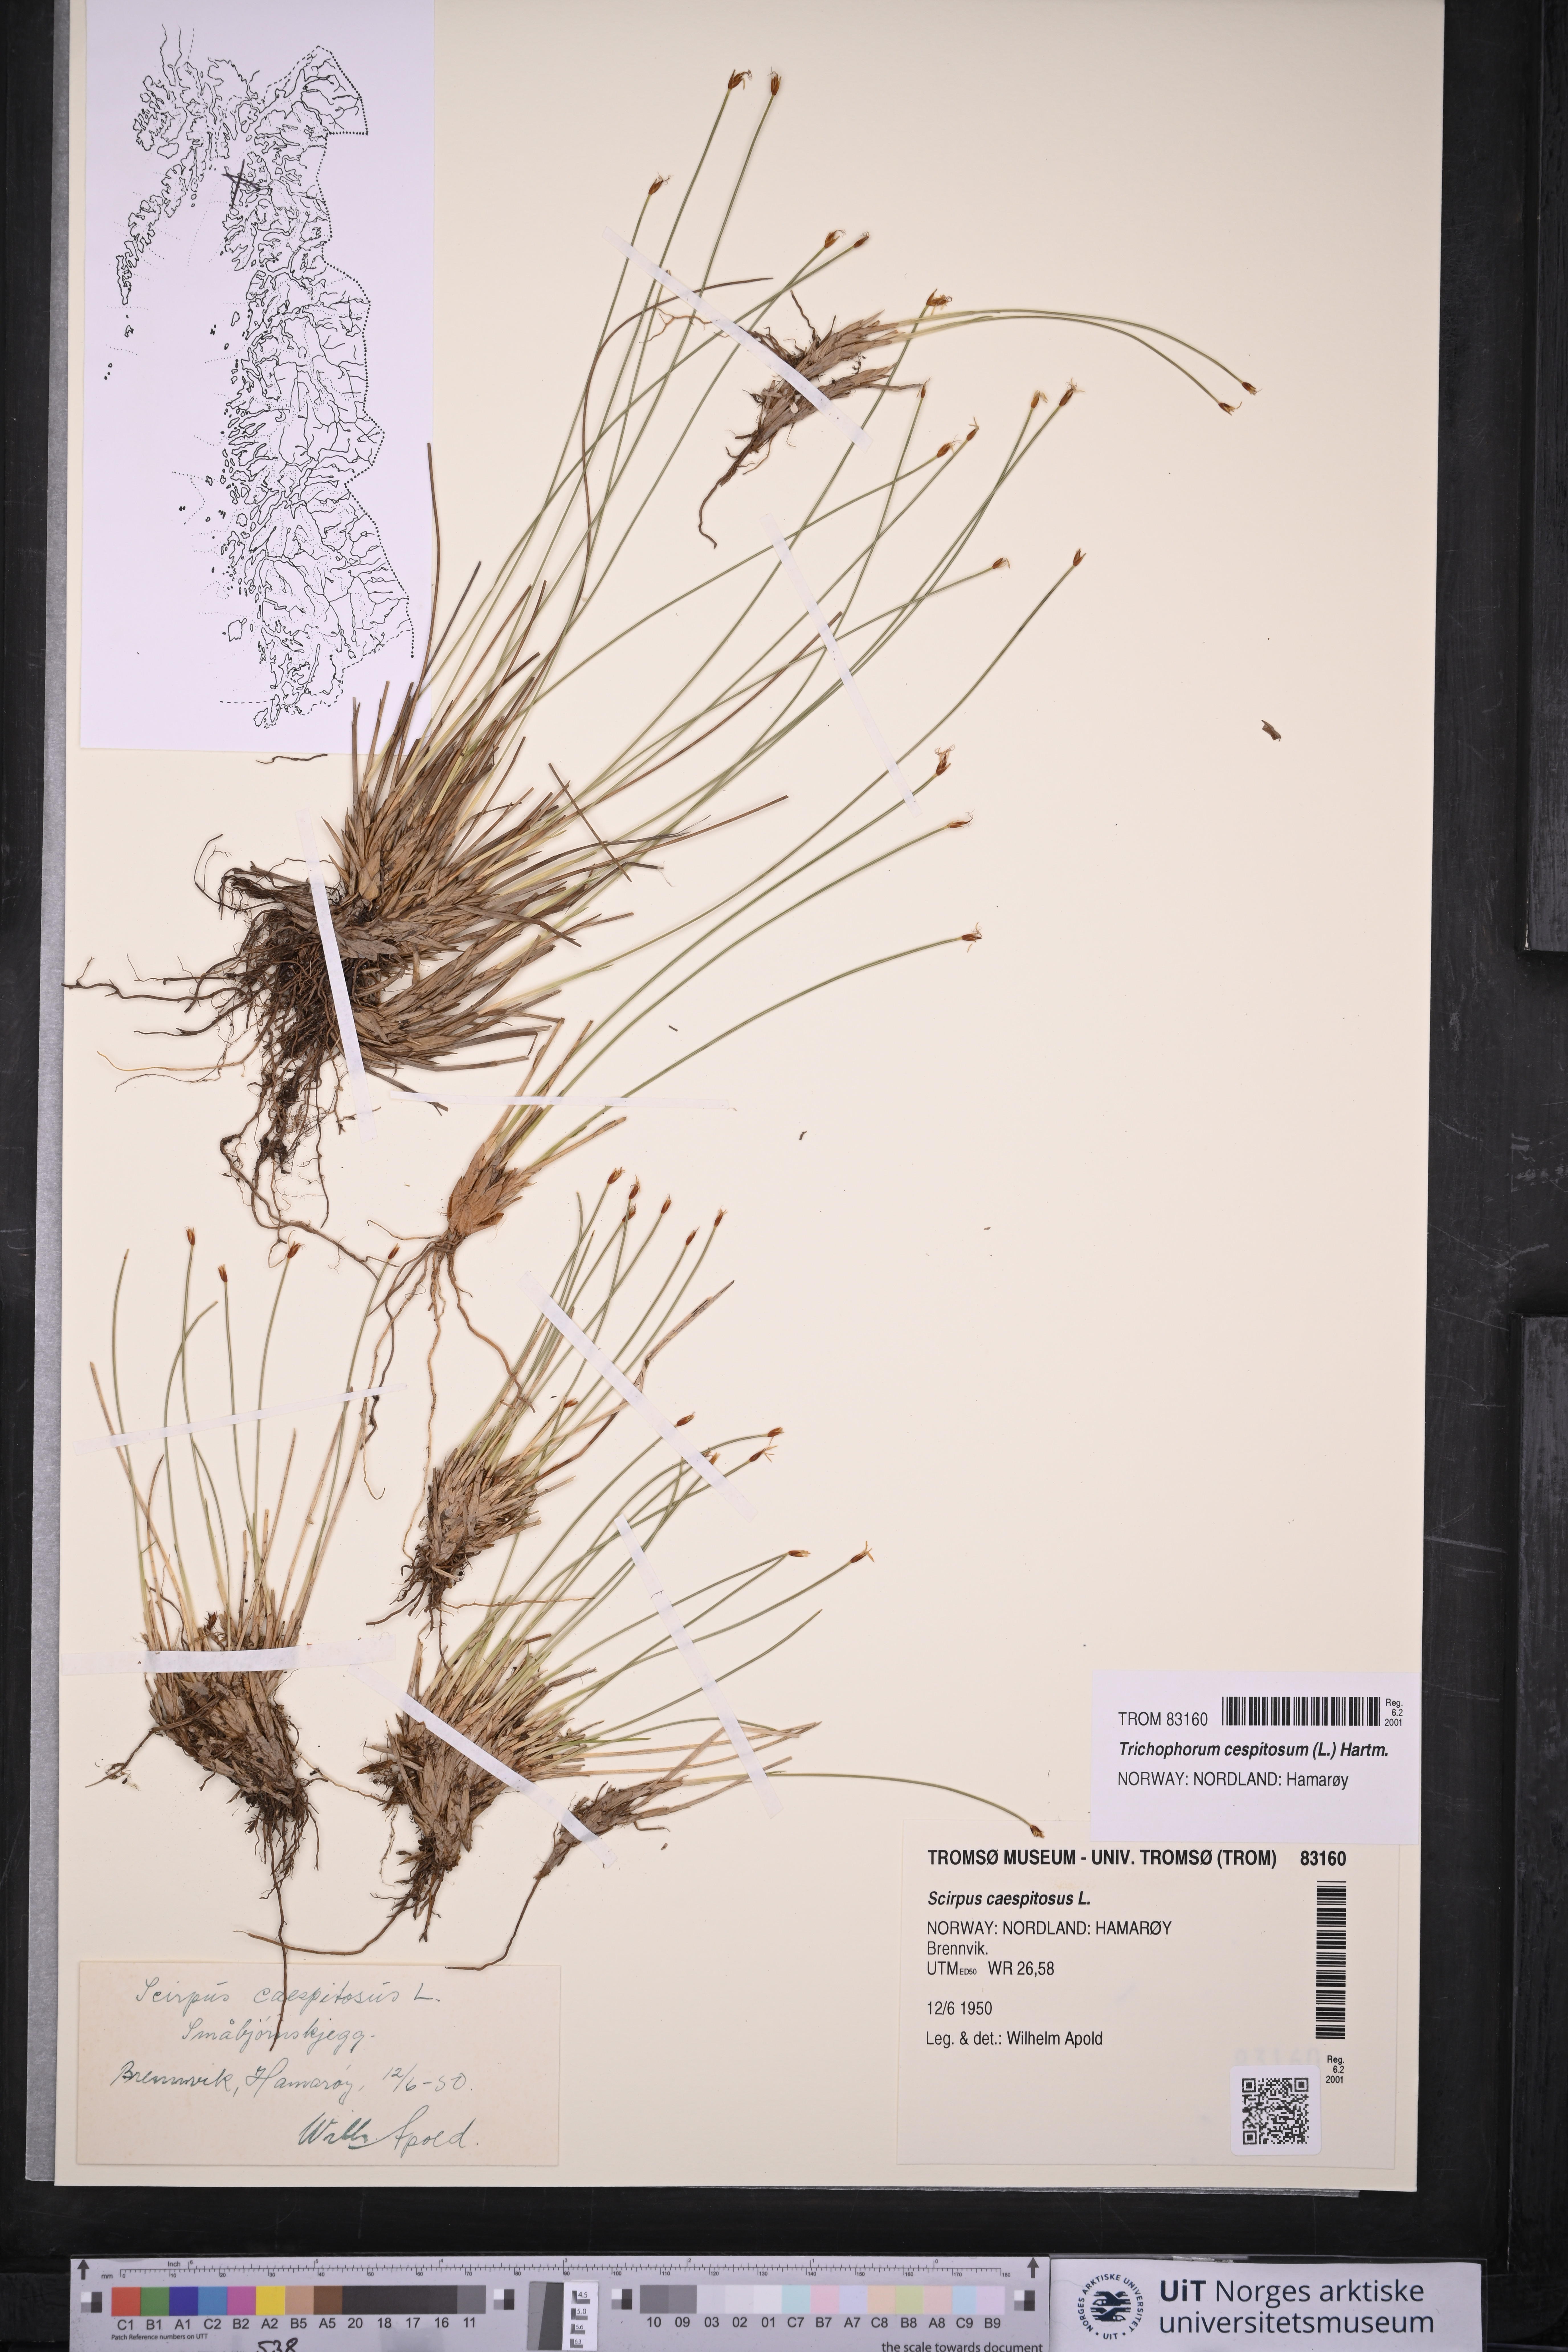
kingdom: Plantae
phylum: Tracheophyta
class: Liliopsida
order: Poales
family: Cyperaceae
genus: Trichophorum
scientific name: Trichophorum cespitosum
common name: Cespitose bulrush
